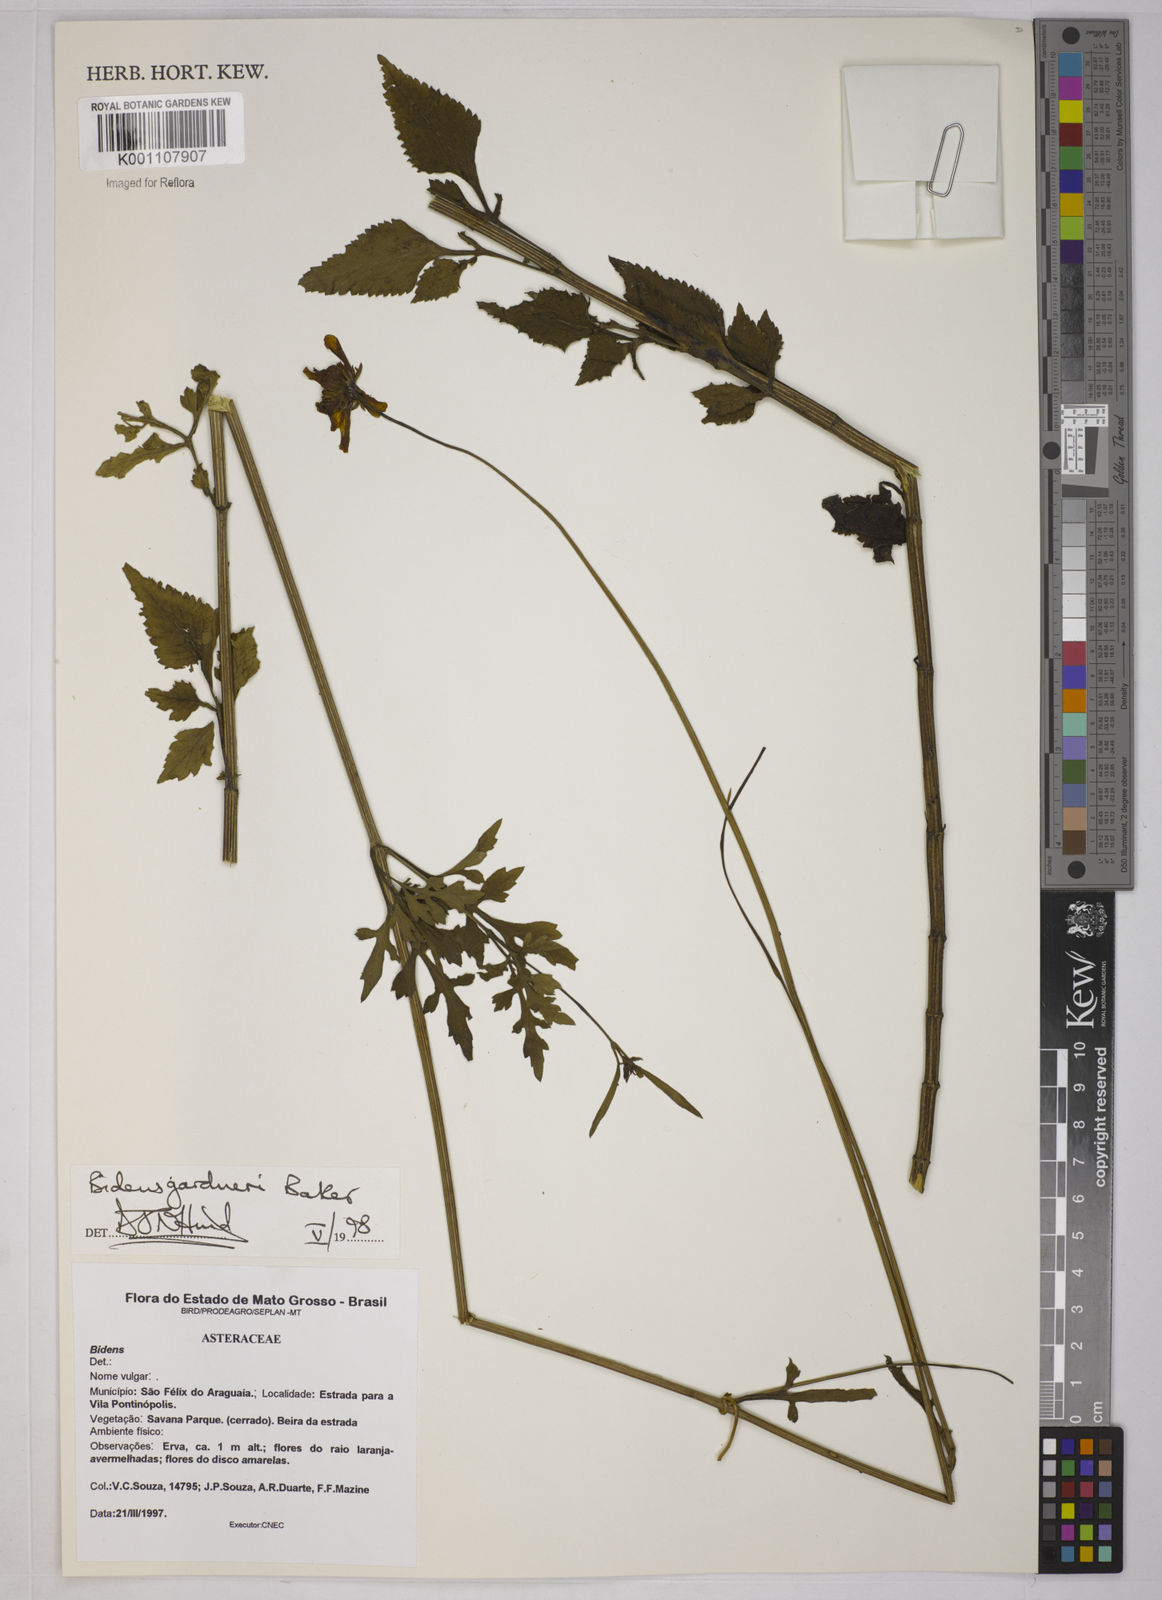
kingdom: Plantae
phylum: Tracheophyta
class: Magnoliopsida
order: Asterales
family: Asteraceae
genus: Bidens
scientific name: Bidens gardneri
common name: Ridge beggartick
